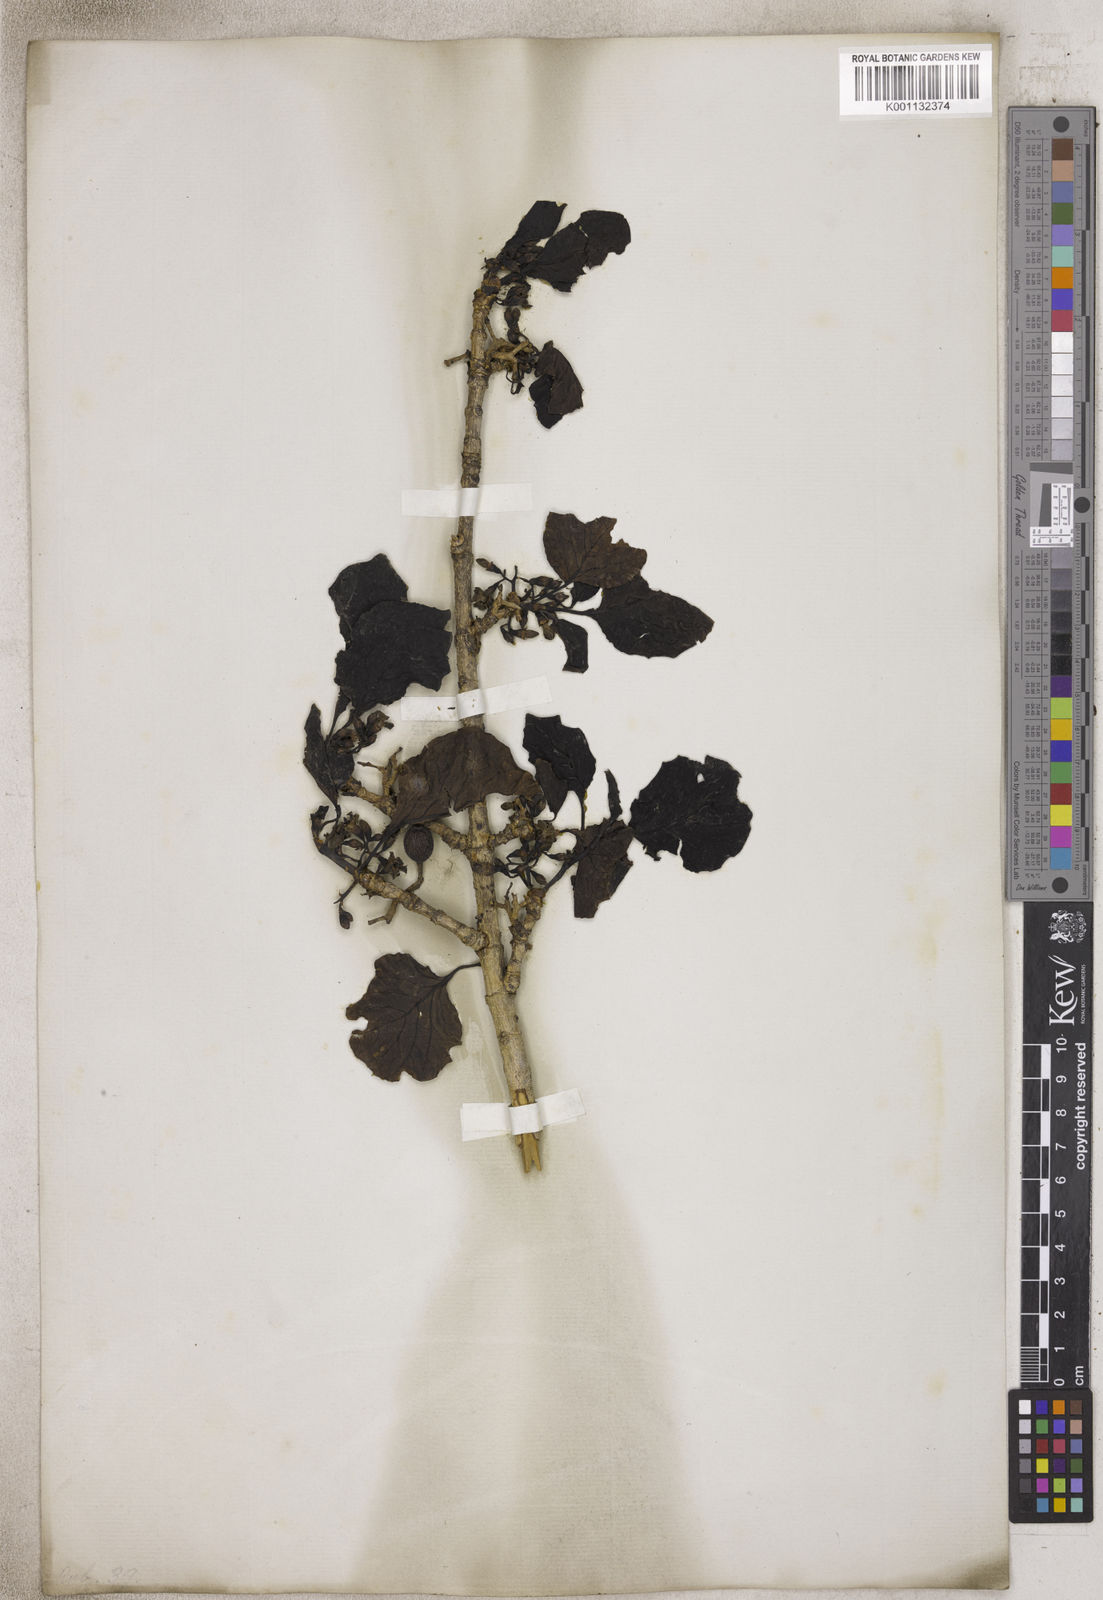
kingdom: Plantae
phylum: Tracheophyta
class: Magnoliopsida
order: Gentianales
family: Rubiaceae
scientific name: Rubiaceae
